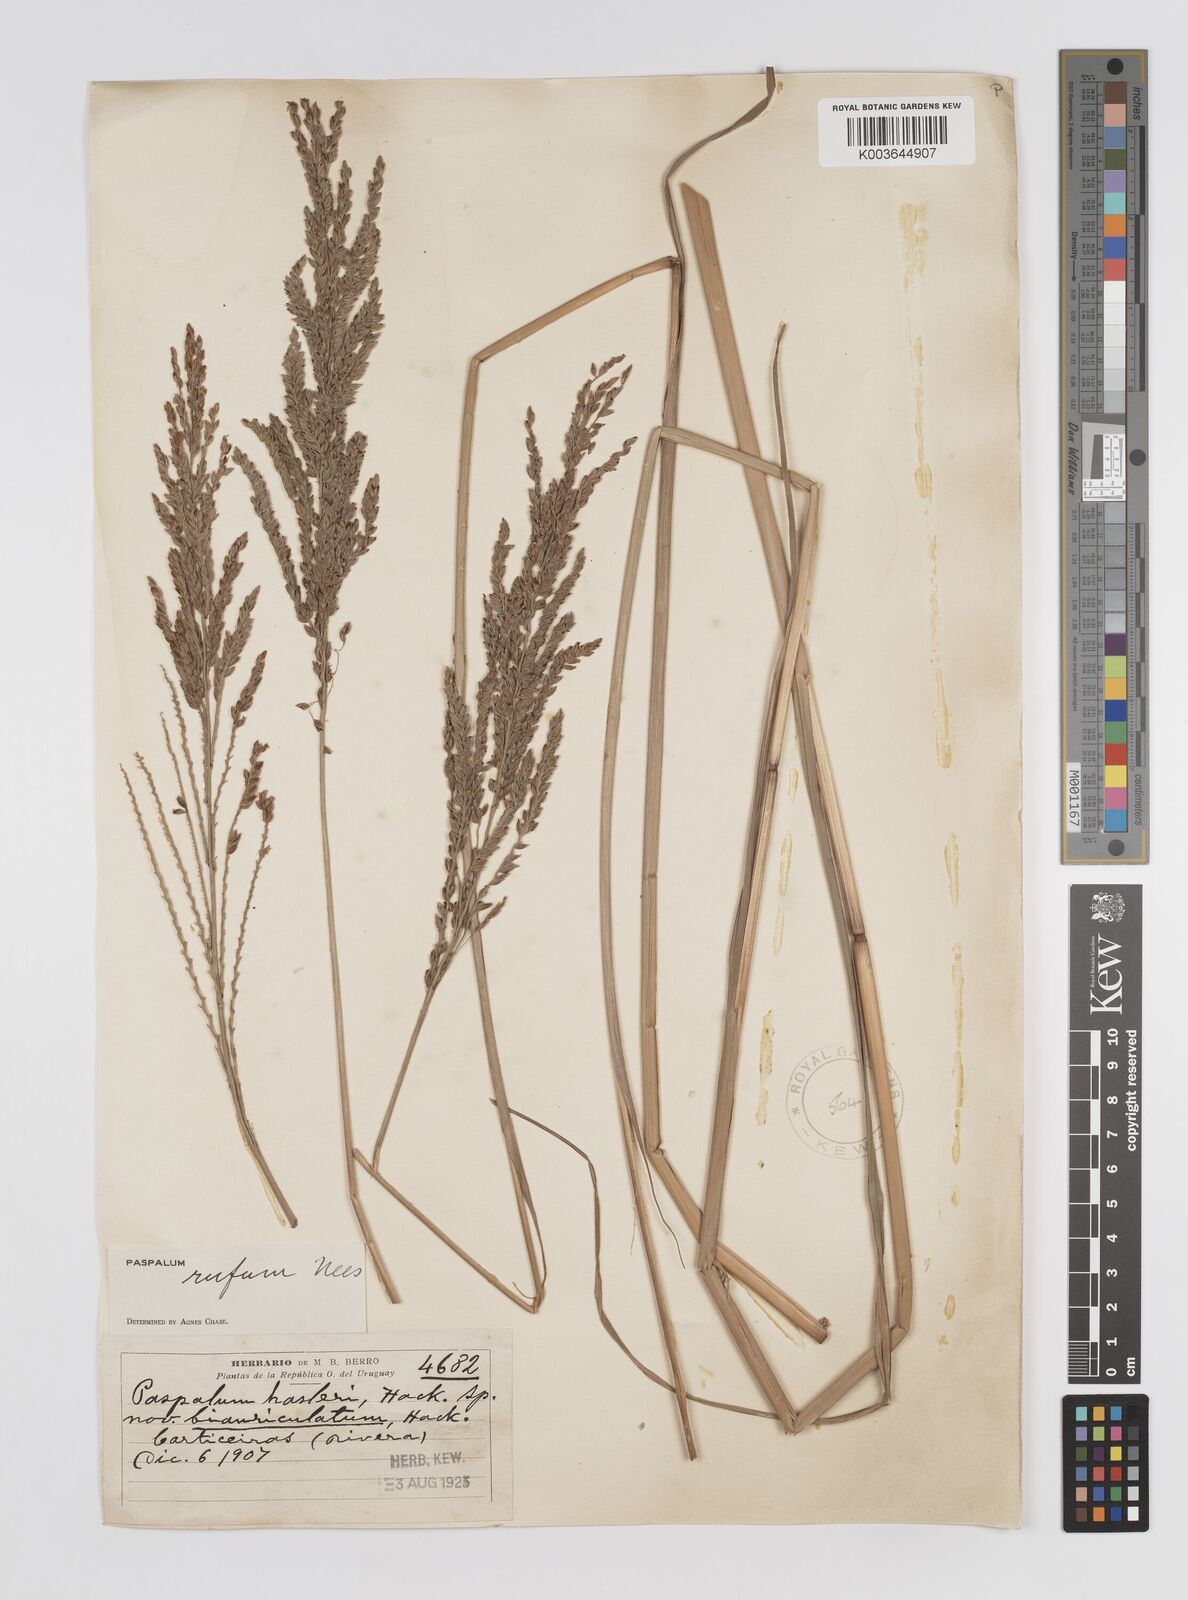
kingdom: Plantae
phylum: Tracheophyta
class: Liliopsida
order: Poales
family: Poaceae
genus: Paspalum
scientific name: Paspalum rufum
